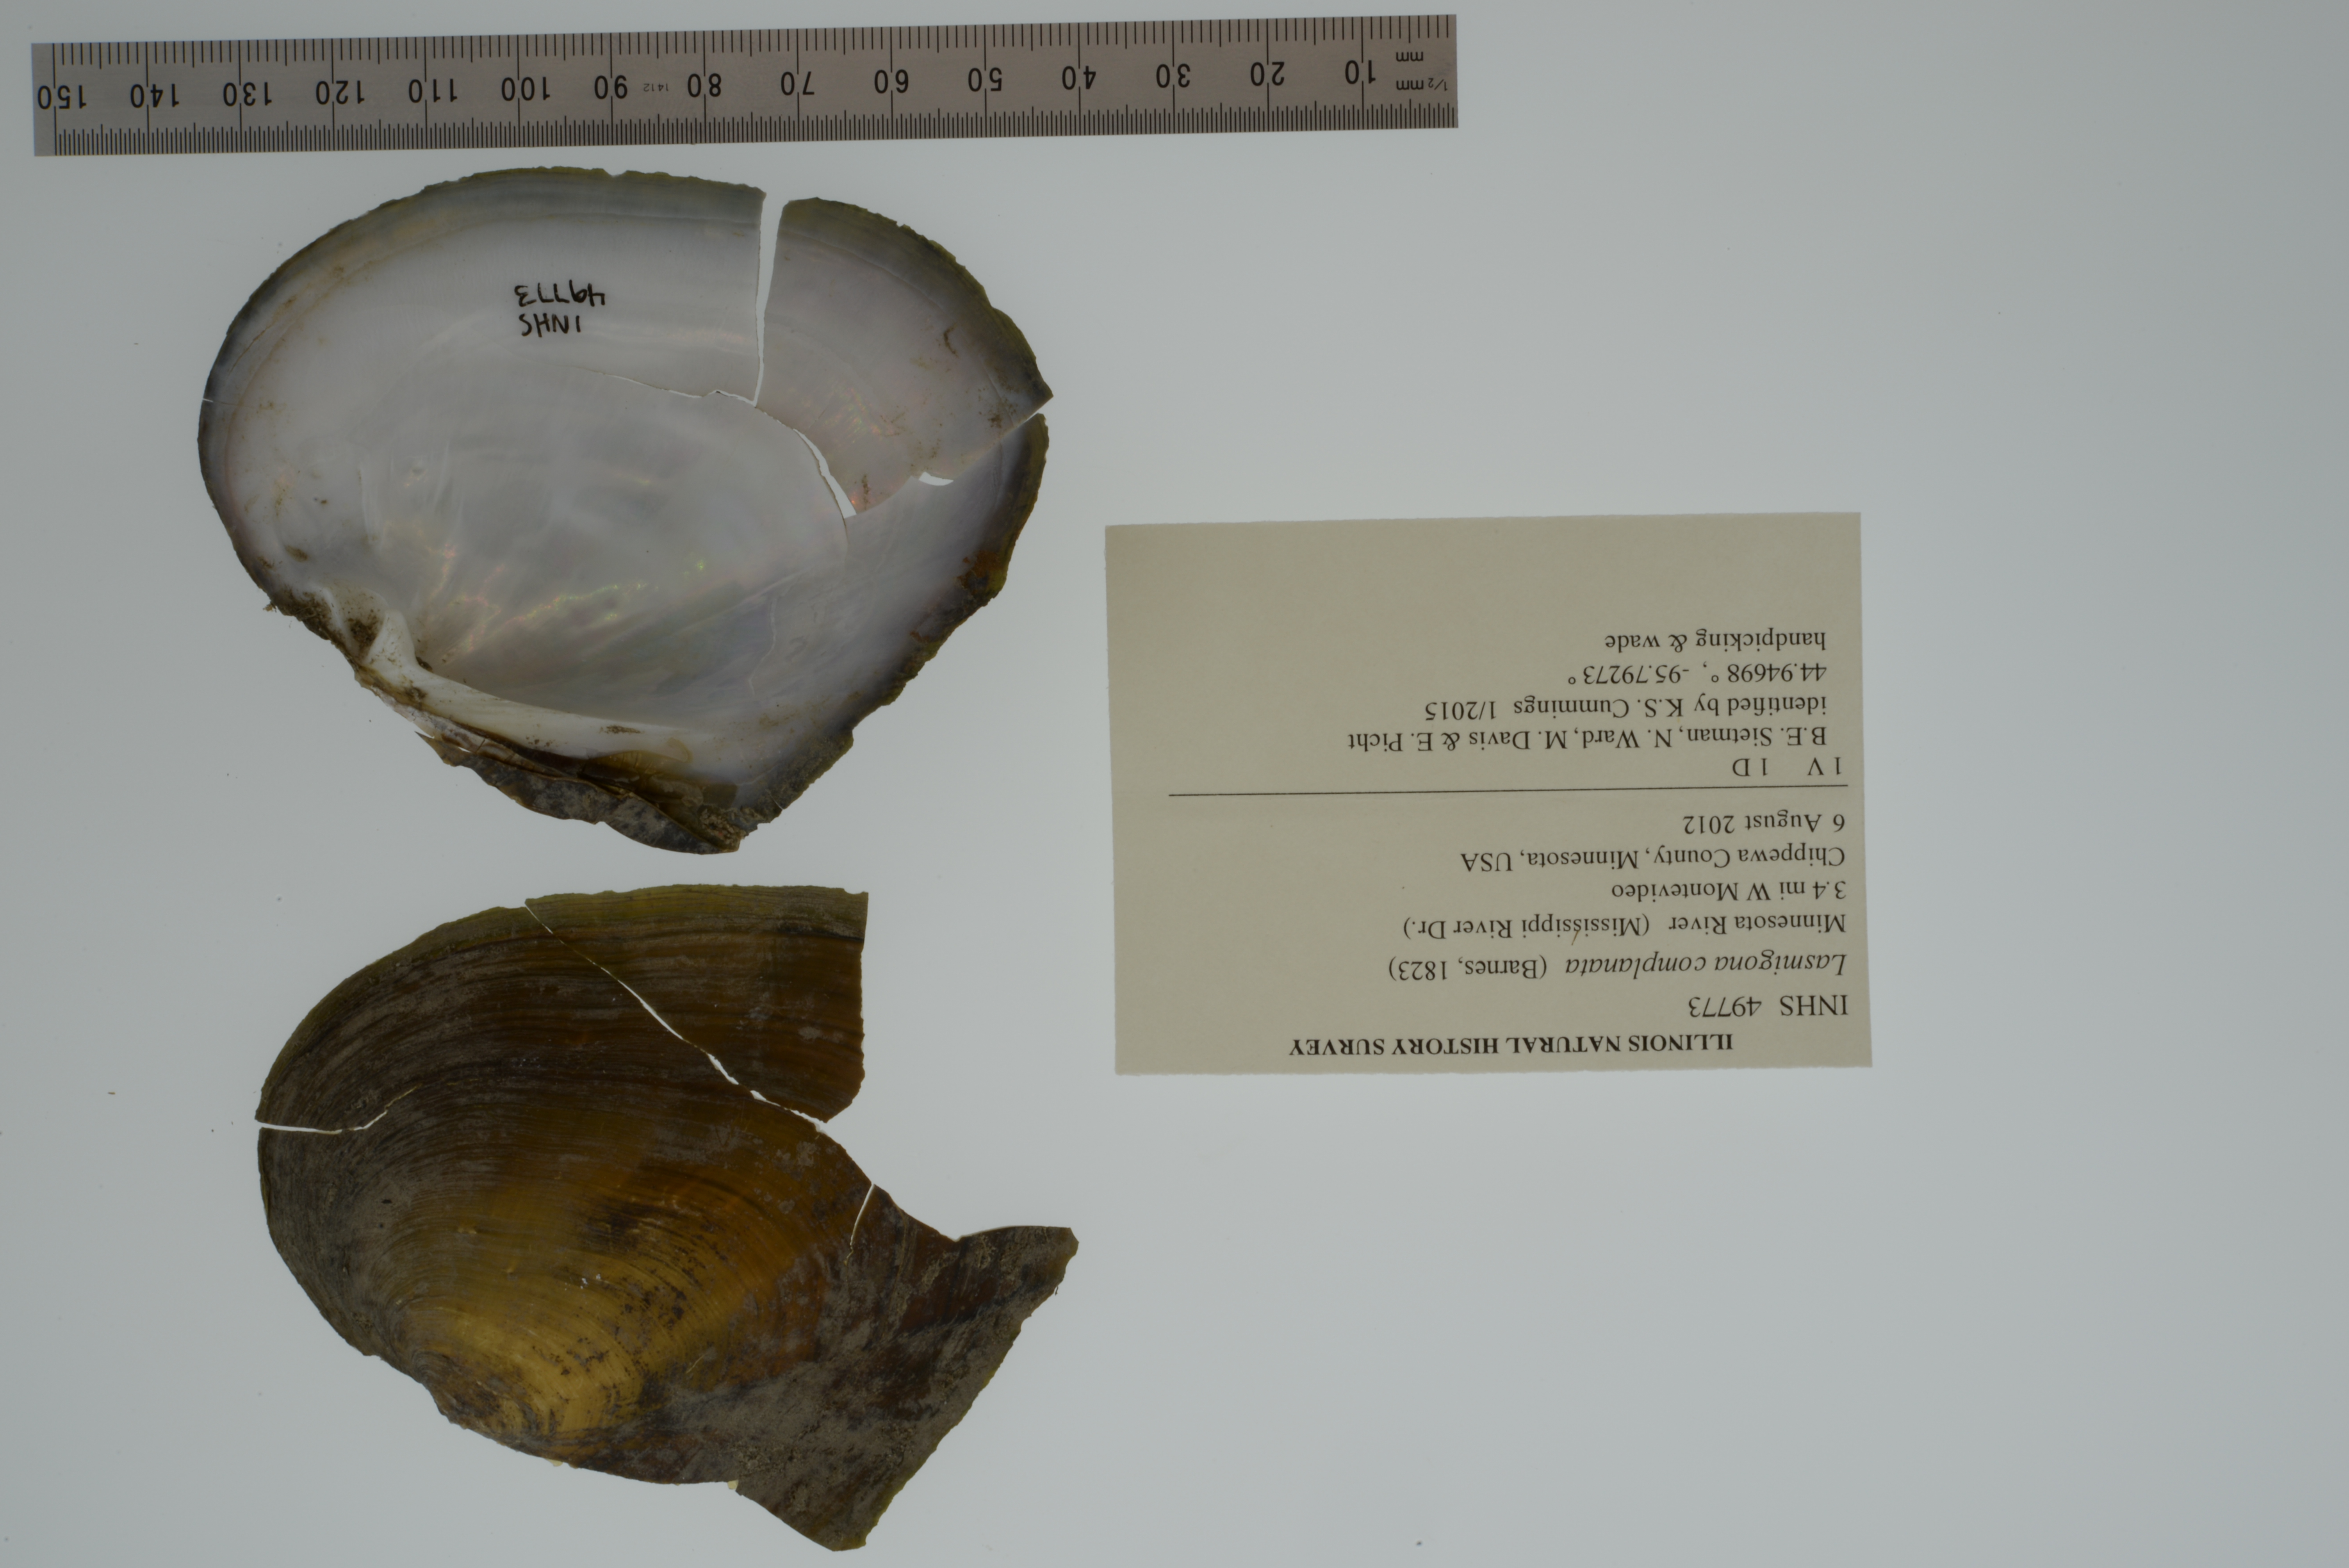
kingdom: Animalia
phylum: Mollusca
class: Bivalvia
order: Unionida
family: Unionidae
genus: Lasmigona
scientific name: Lasmigona complanata
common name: White heelsplitter
